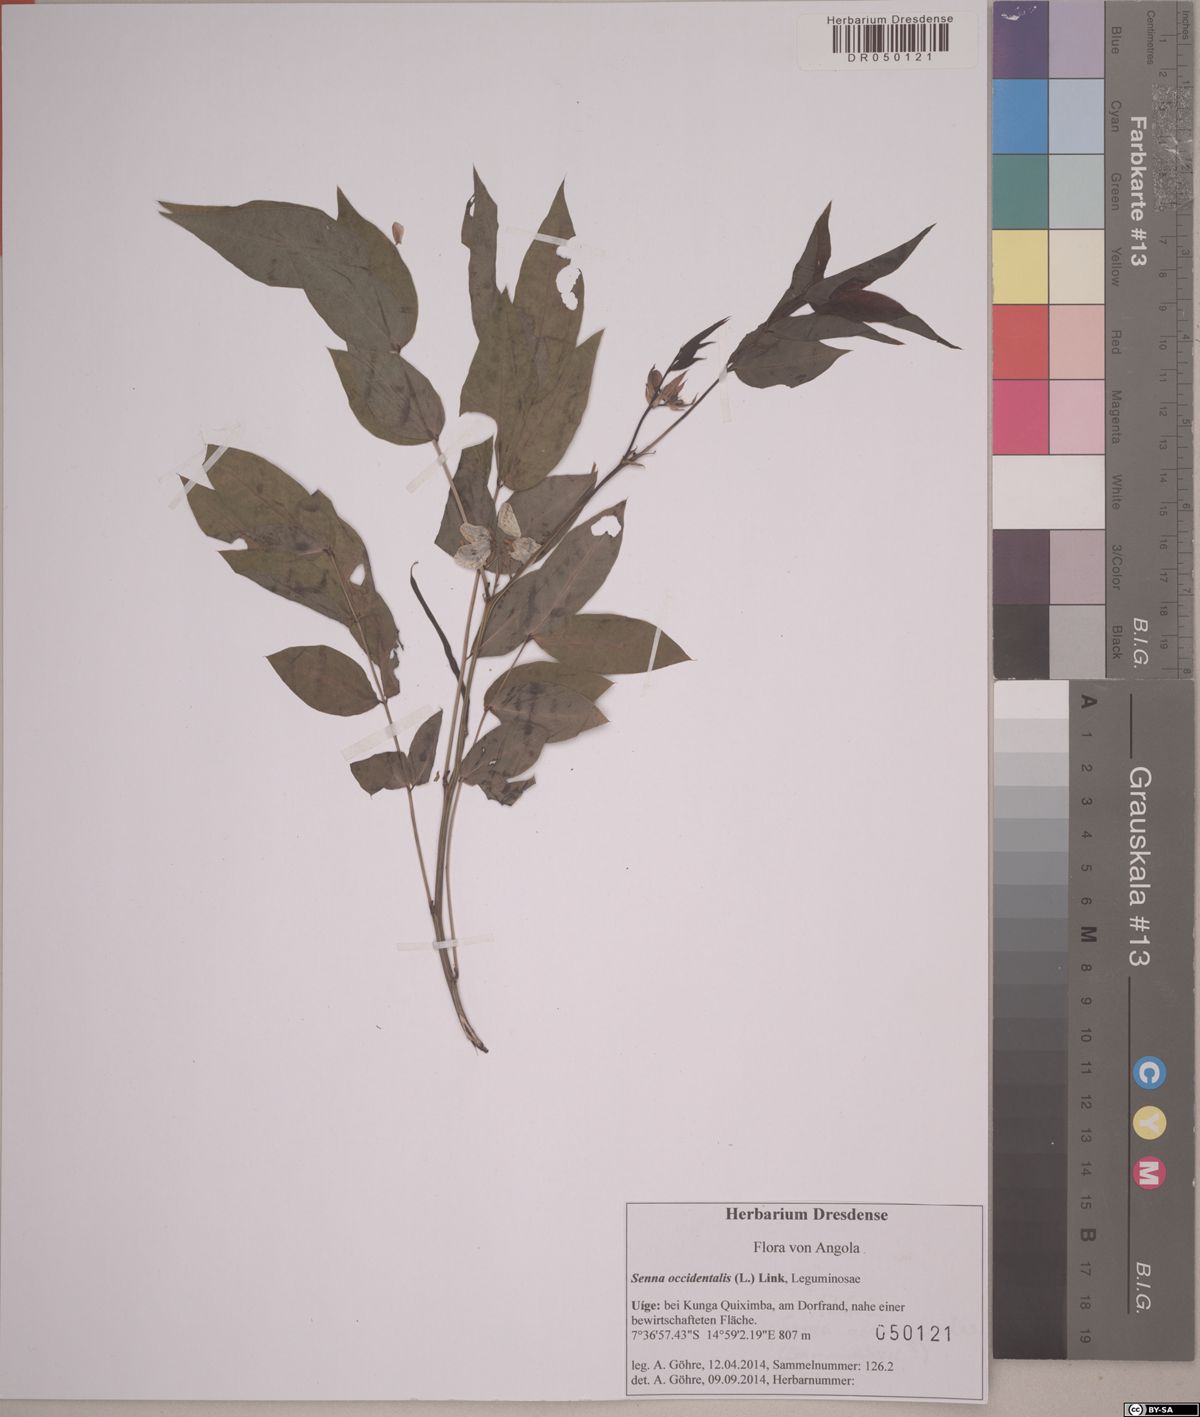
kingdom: Plantae
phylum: Tracheophyta
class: Magnoliopsida
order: Fabales
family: Fabaceae
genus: Senna
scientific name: Senna occidentalis
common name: Septicweed
